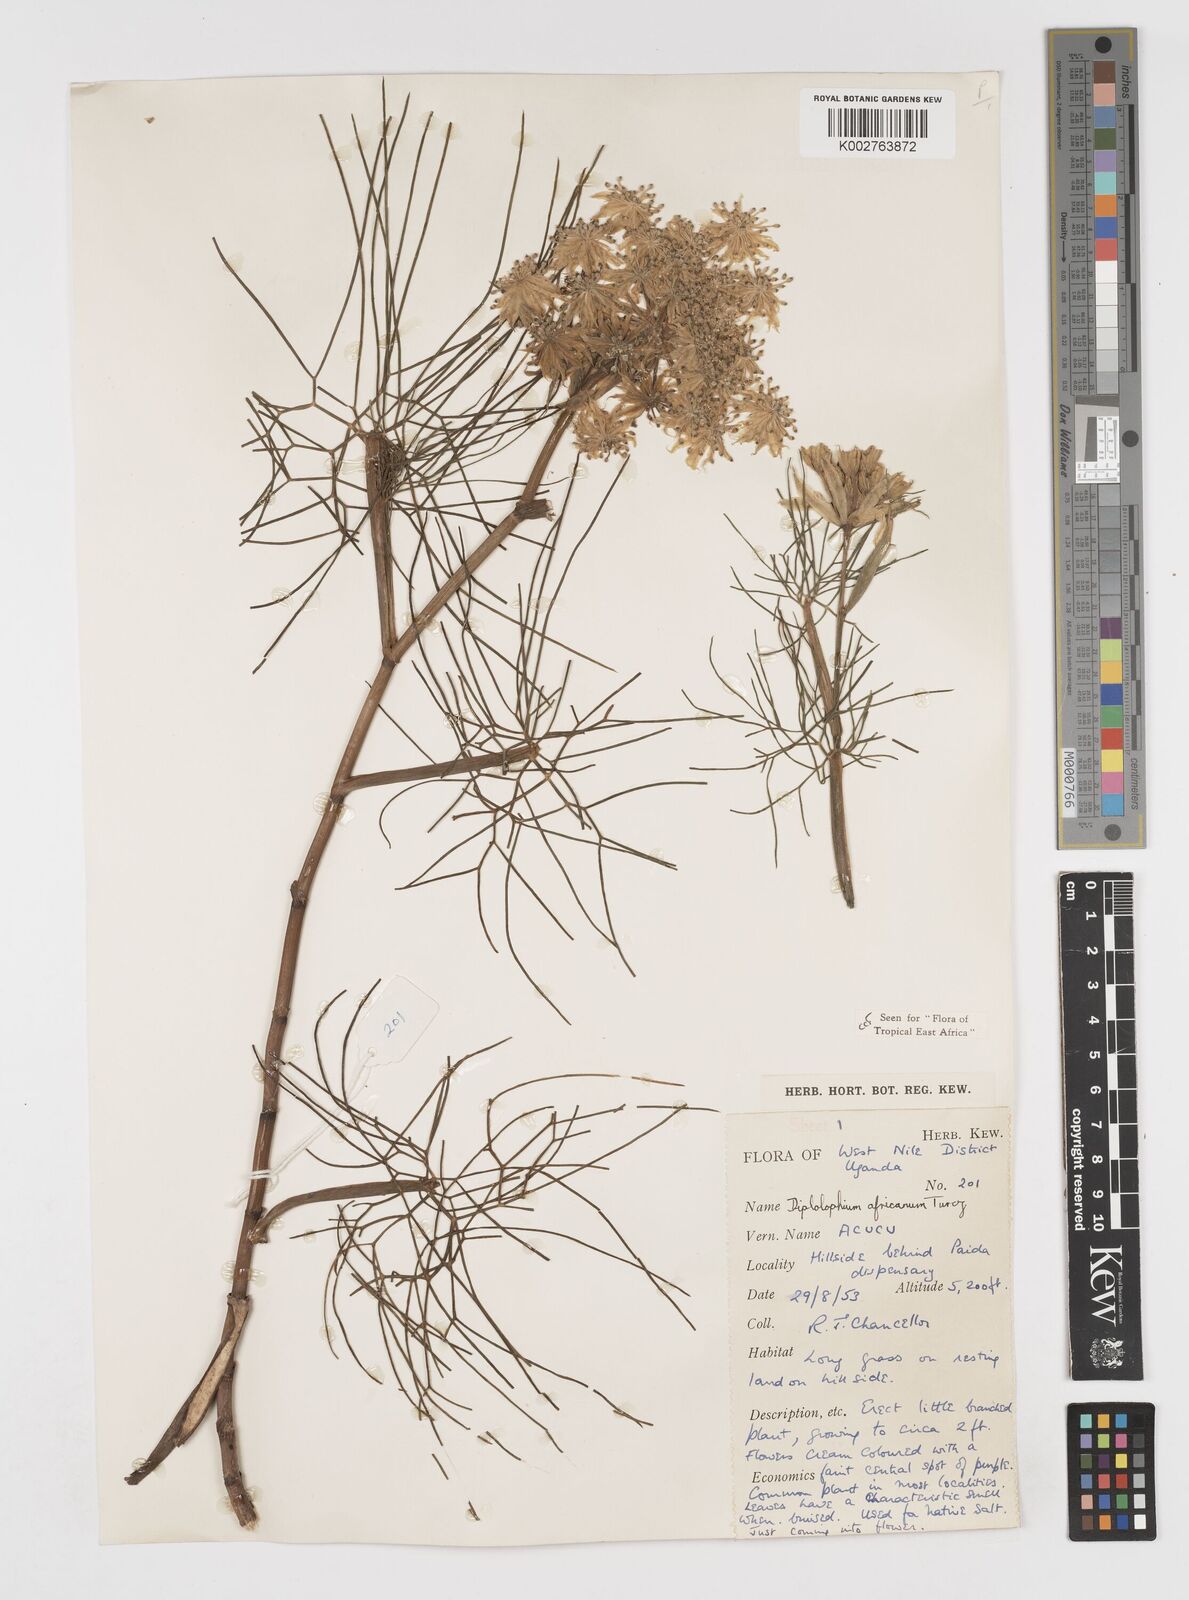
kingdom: Plantae
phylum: Tracheophyta
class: Magnoliopsida
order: Apiales
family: Apiaceae
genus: Diplolophium
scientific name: Diplolophium africanum
